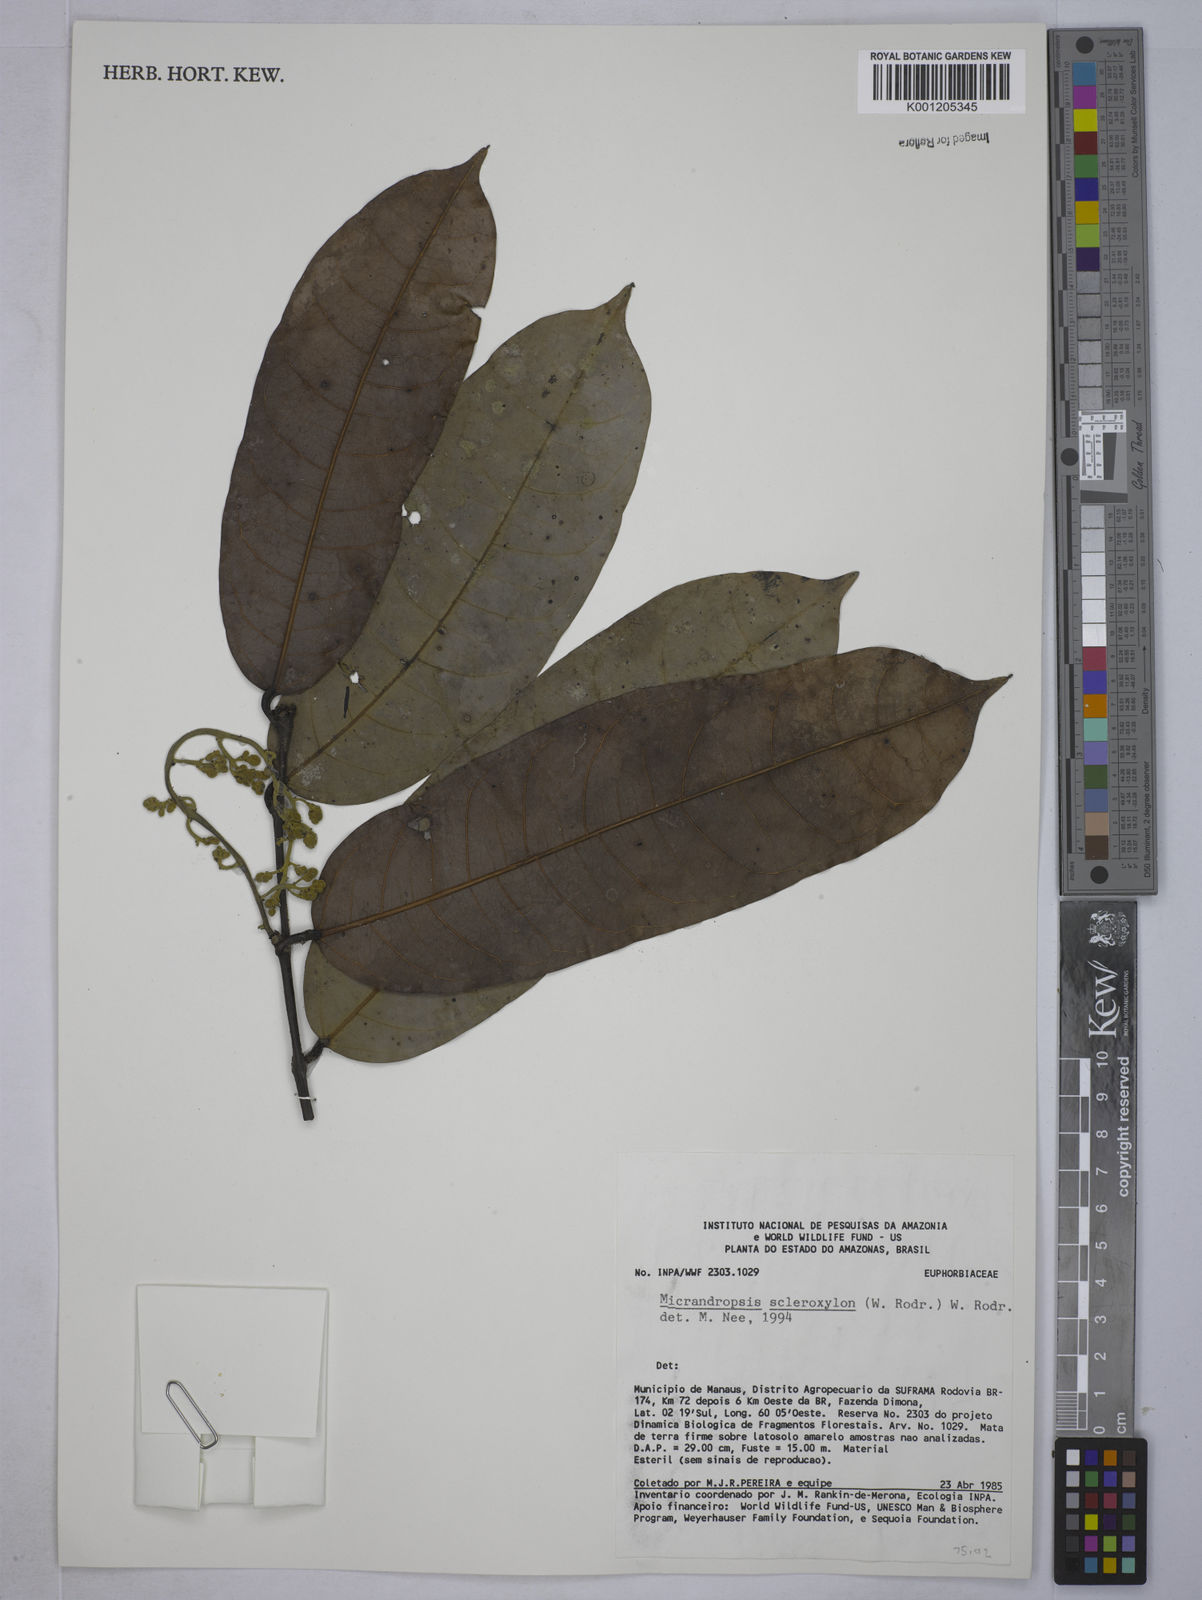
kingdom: Plantae
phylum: Tracheophyta
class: Magnoliopsida
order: Malpighiales
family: Euphorbiaceae
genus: Micrandropsis
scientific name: Micrandropsis scleroxylon
